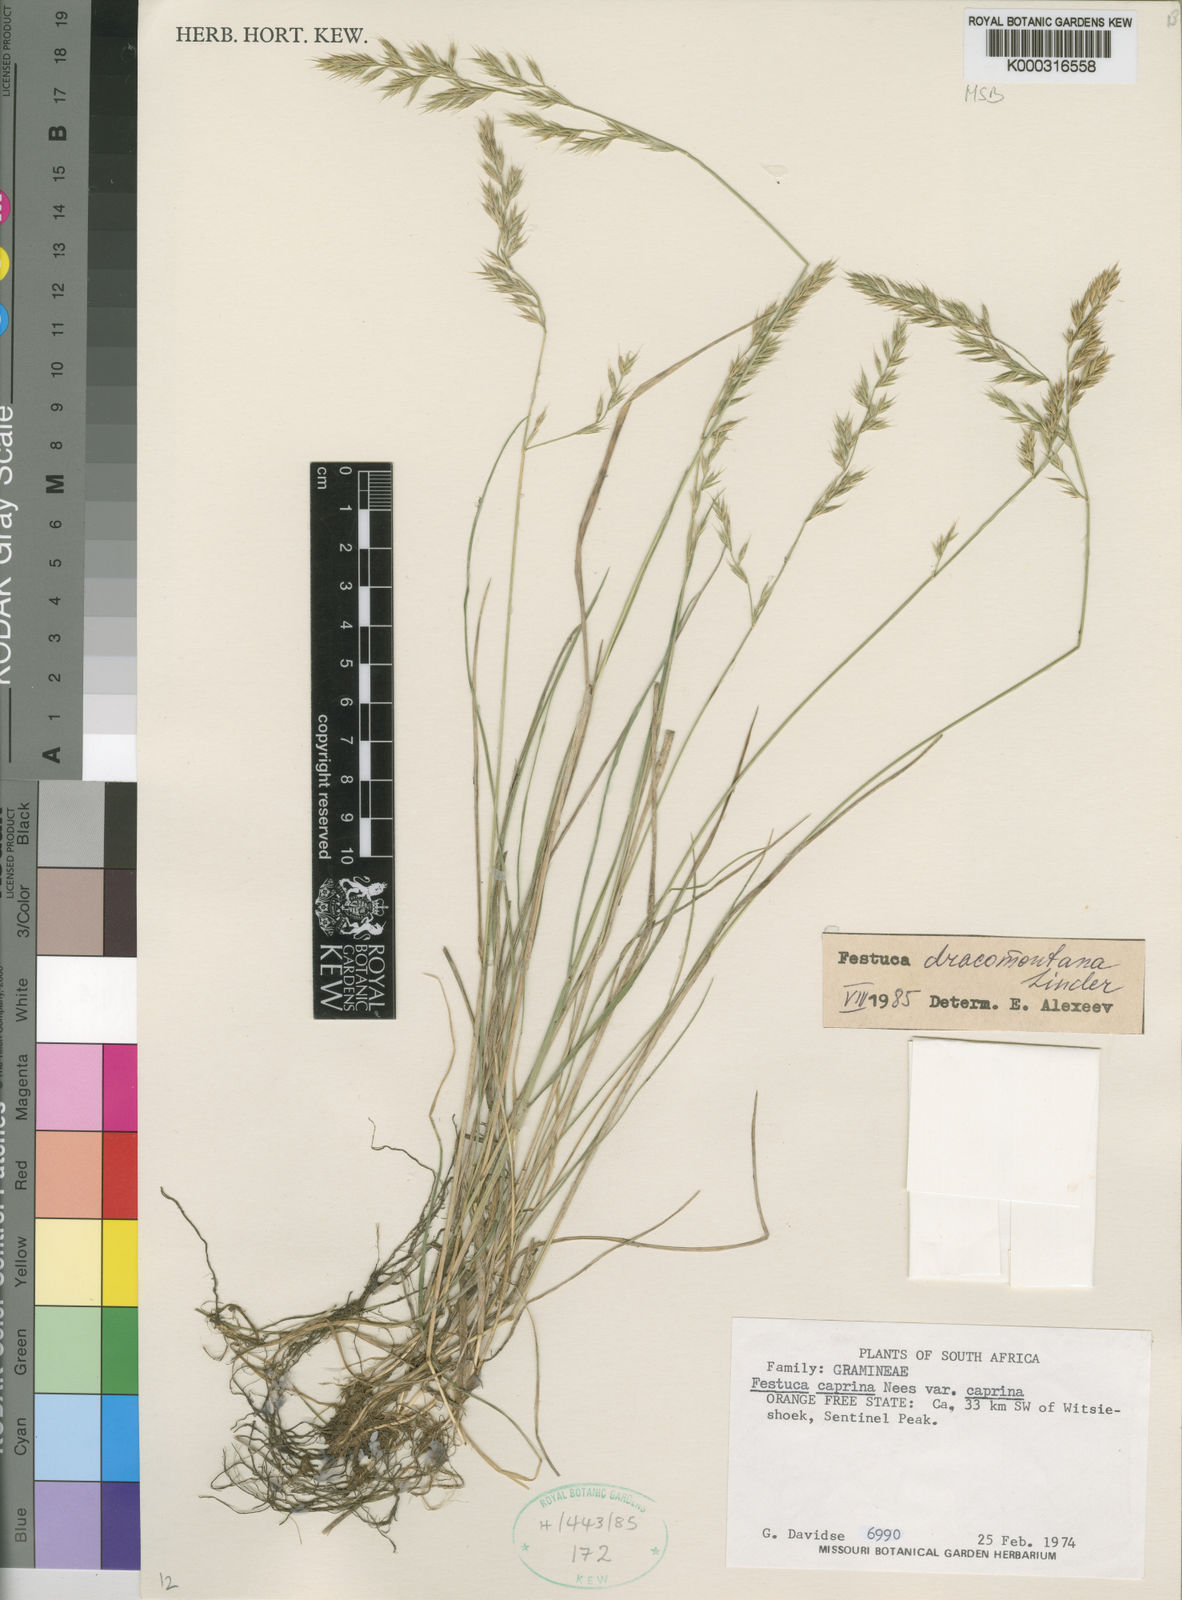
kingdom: Plantae
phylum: Tracheophyta
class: Liliopsida
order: Poales
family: Poaceae
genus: Festuca
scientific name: Festuca dracomontana
